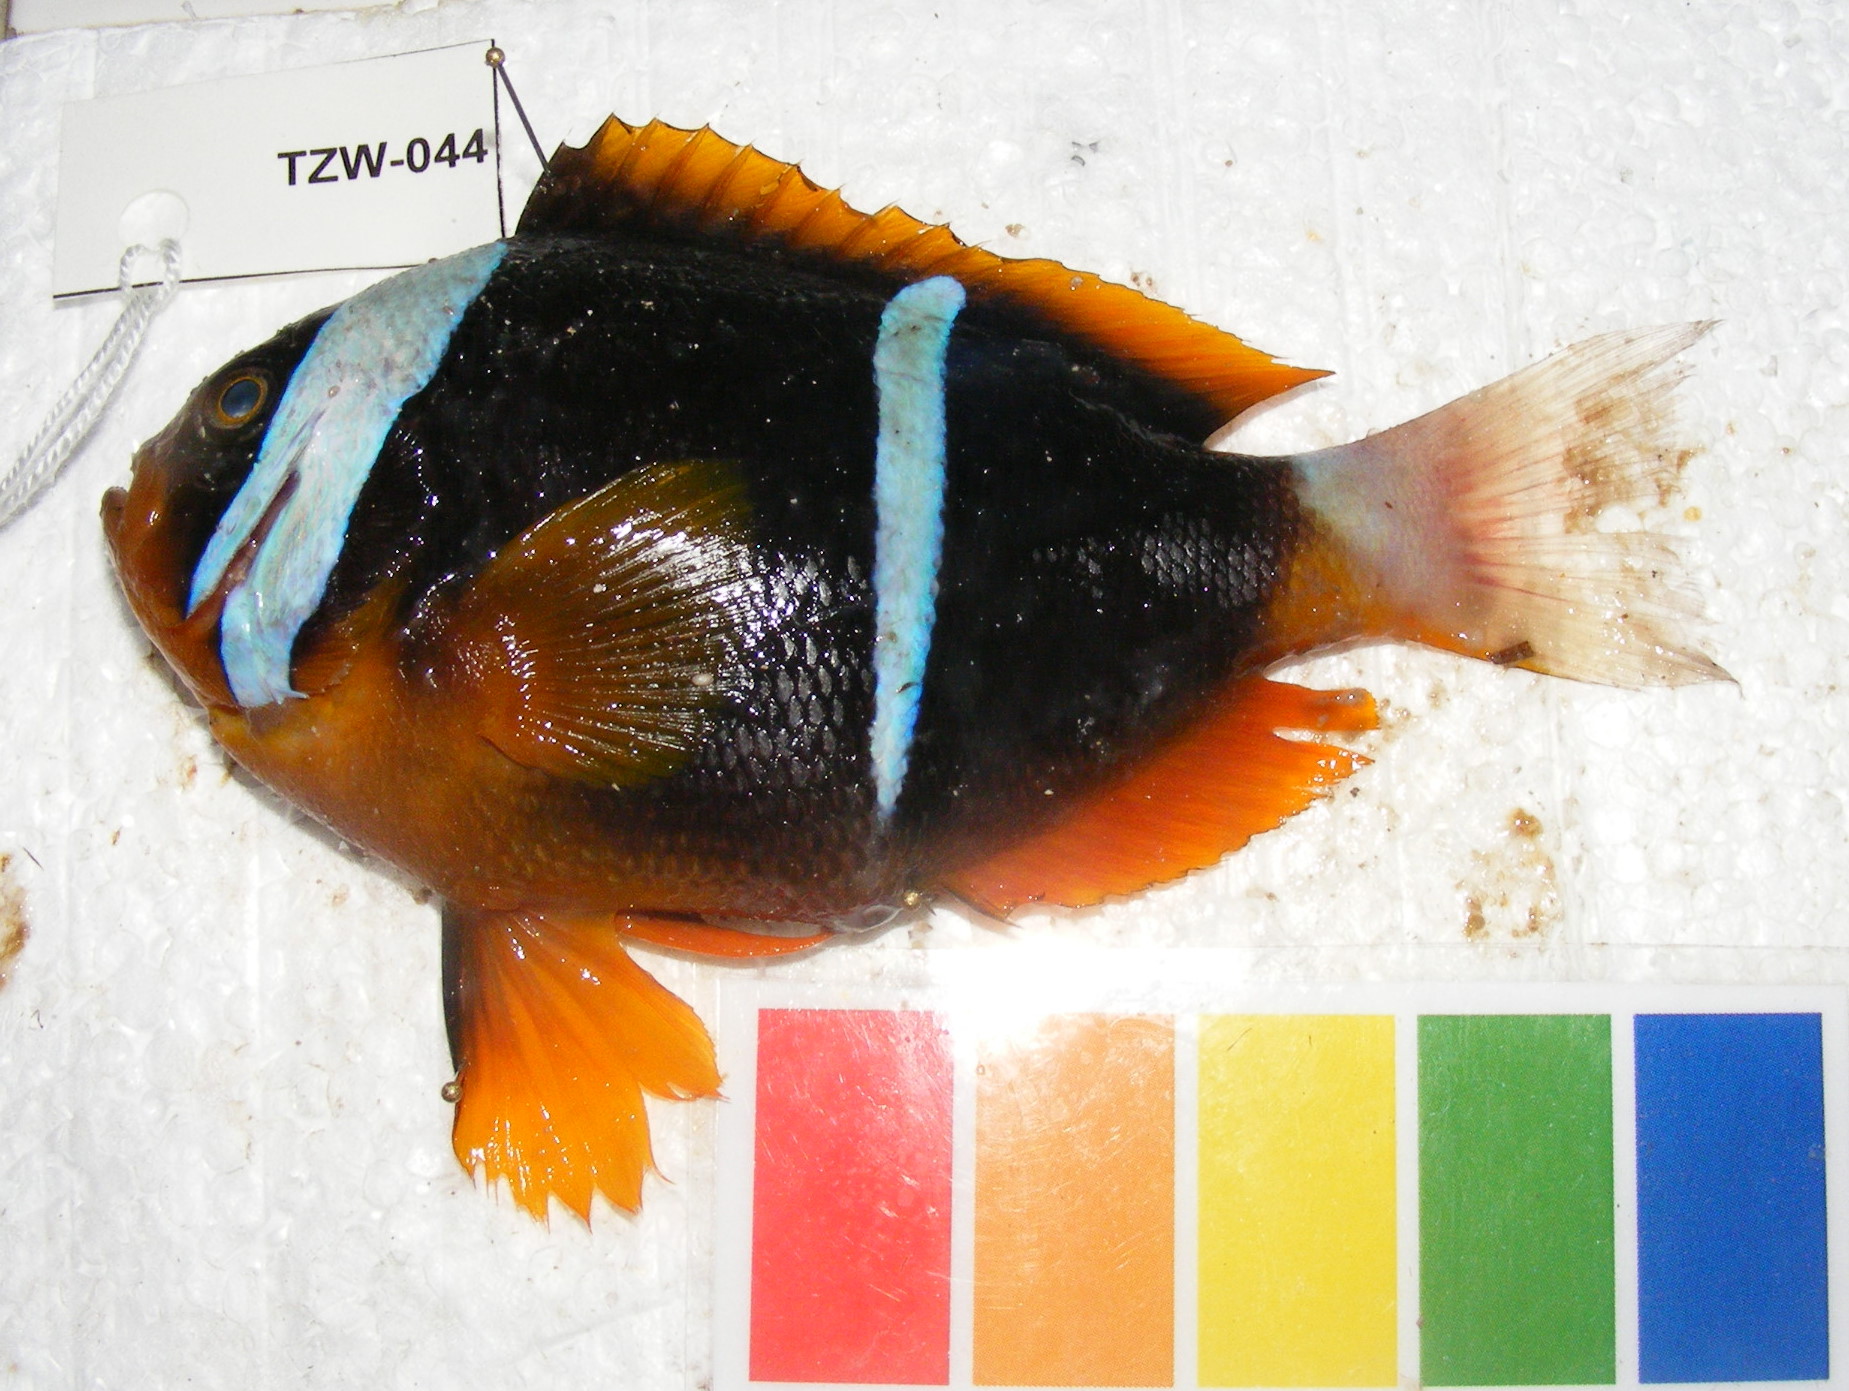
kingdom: Animalia
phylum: Chordata
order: Perciformes
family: Pomacentridae
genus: Amphiprion
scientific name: Amphiprion allardi
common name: Allard's anemonefish
